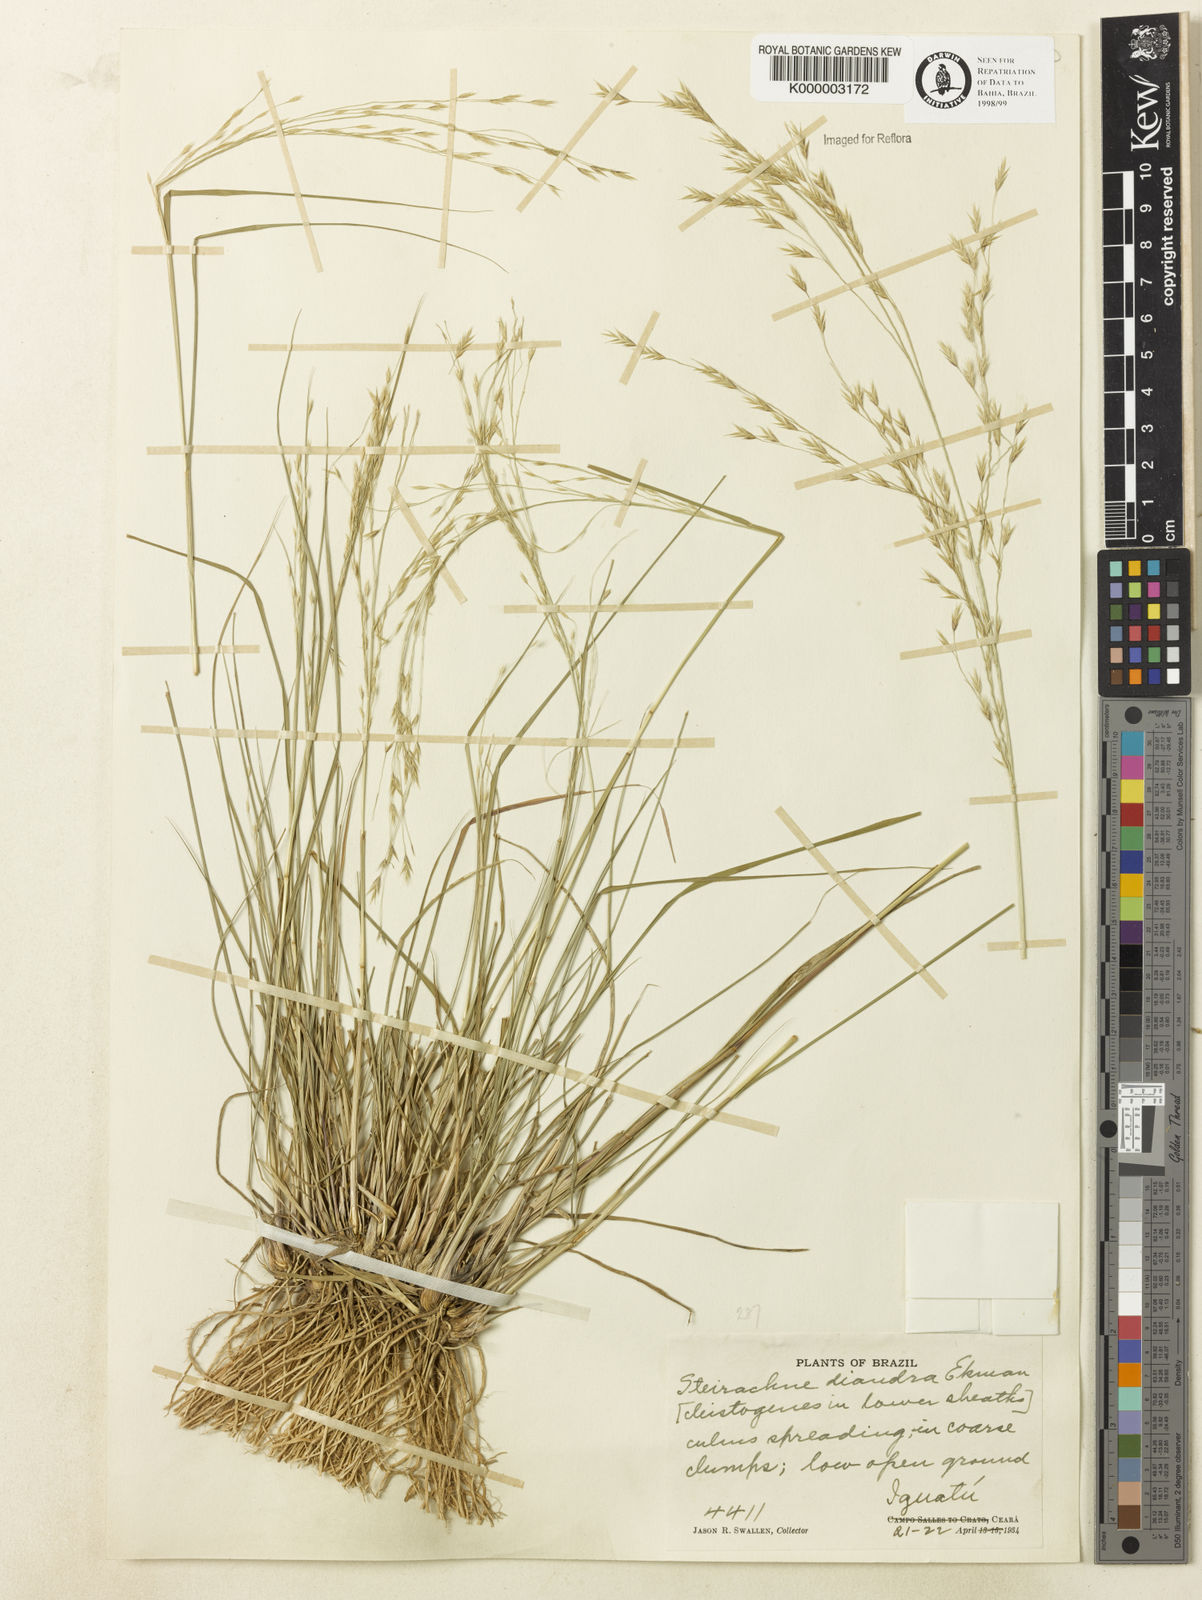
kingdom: Plantae
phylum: Tracheophyta
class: Liliopsida
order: Poales
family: Poaceae
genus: Steirachne
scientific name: Steirachne diandra
